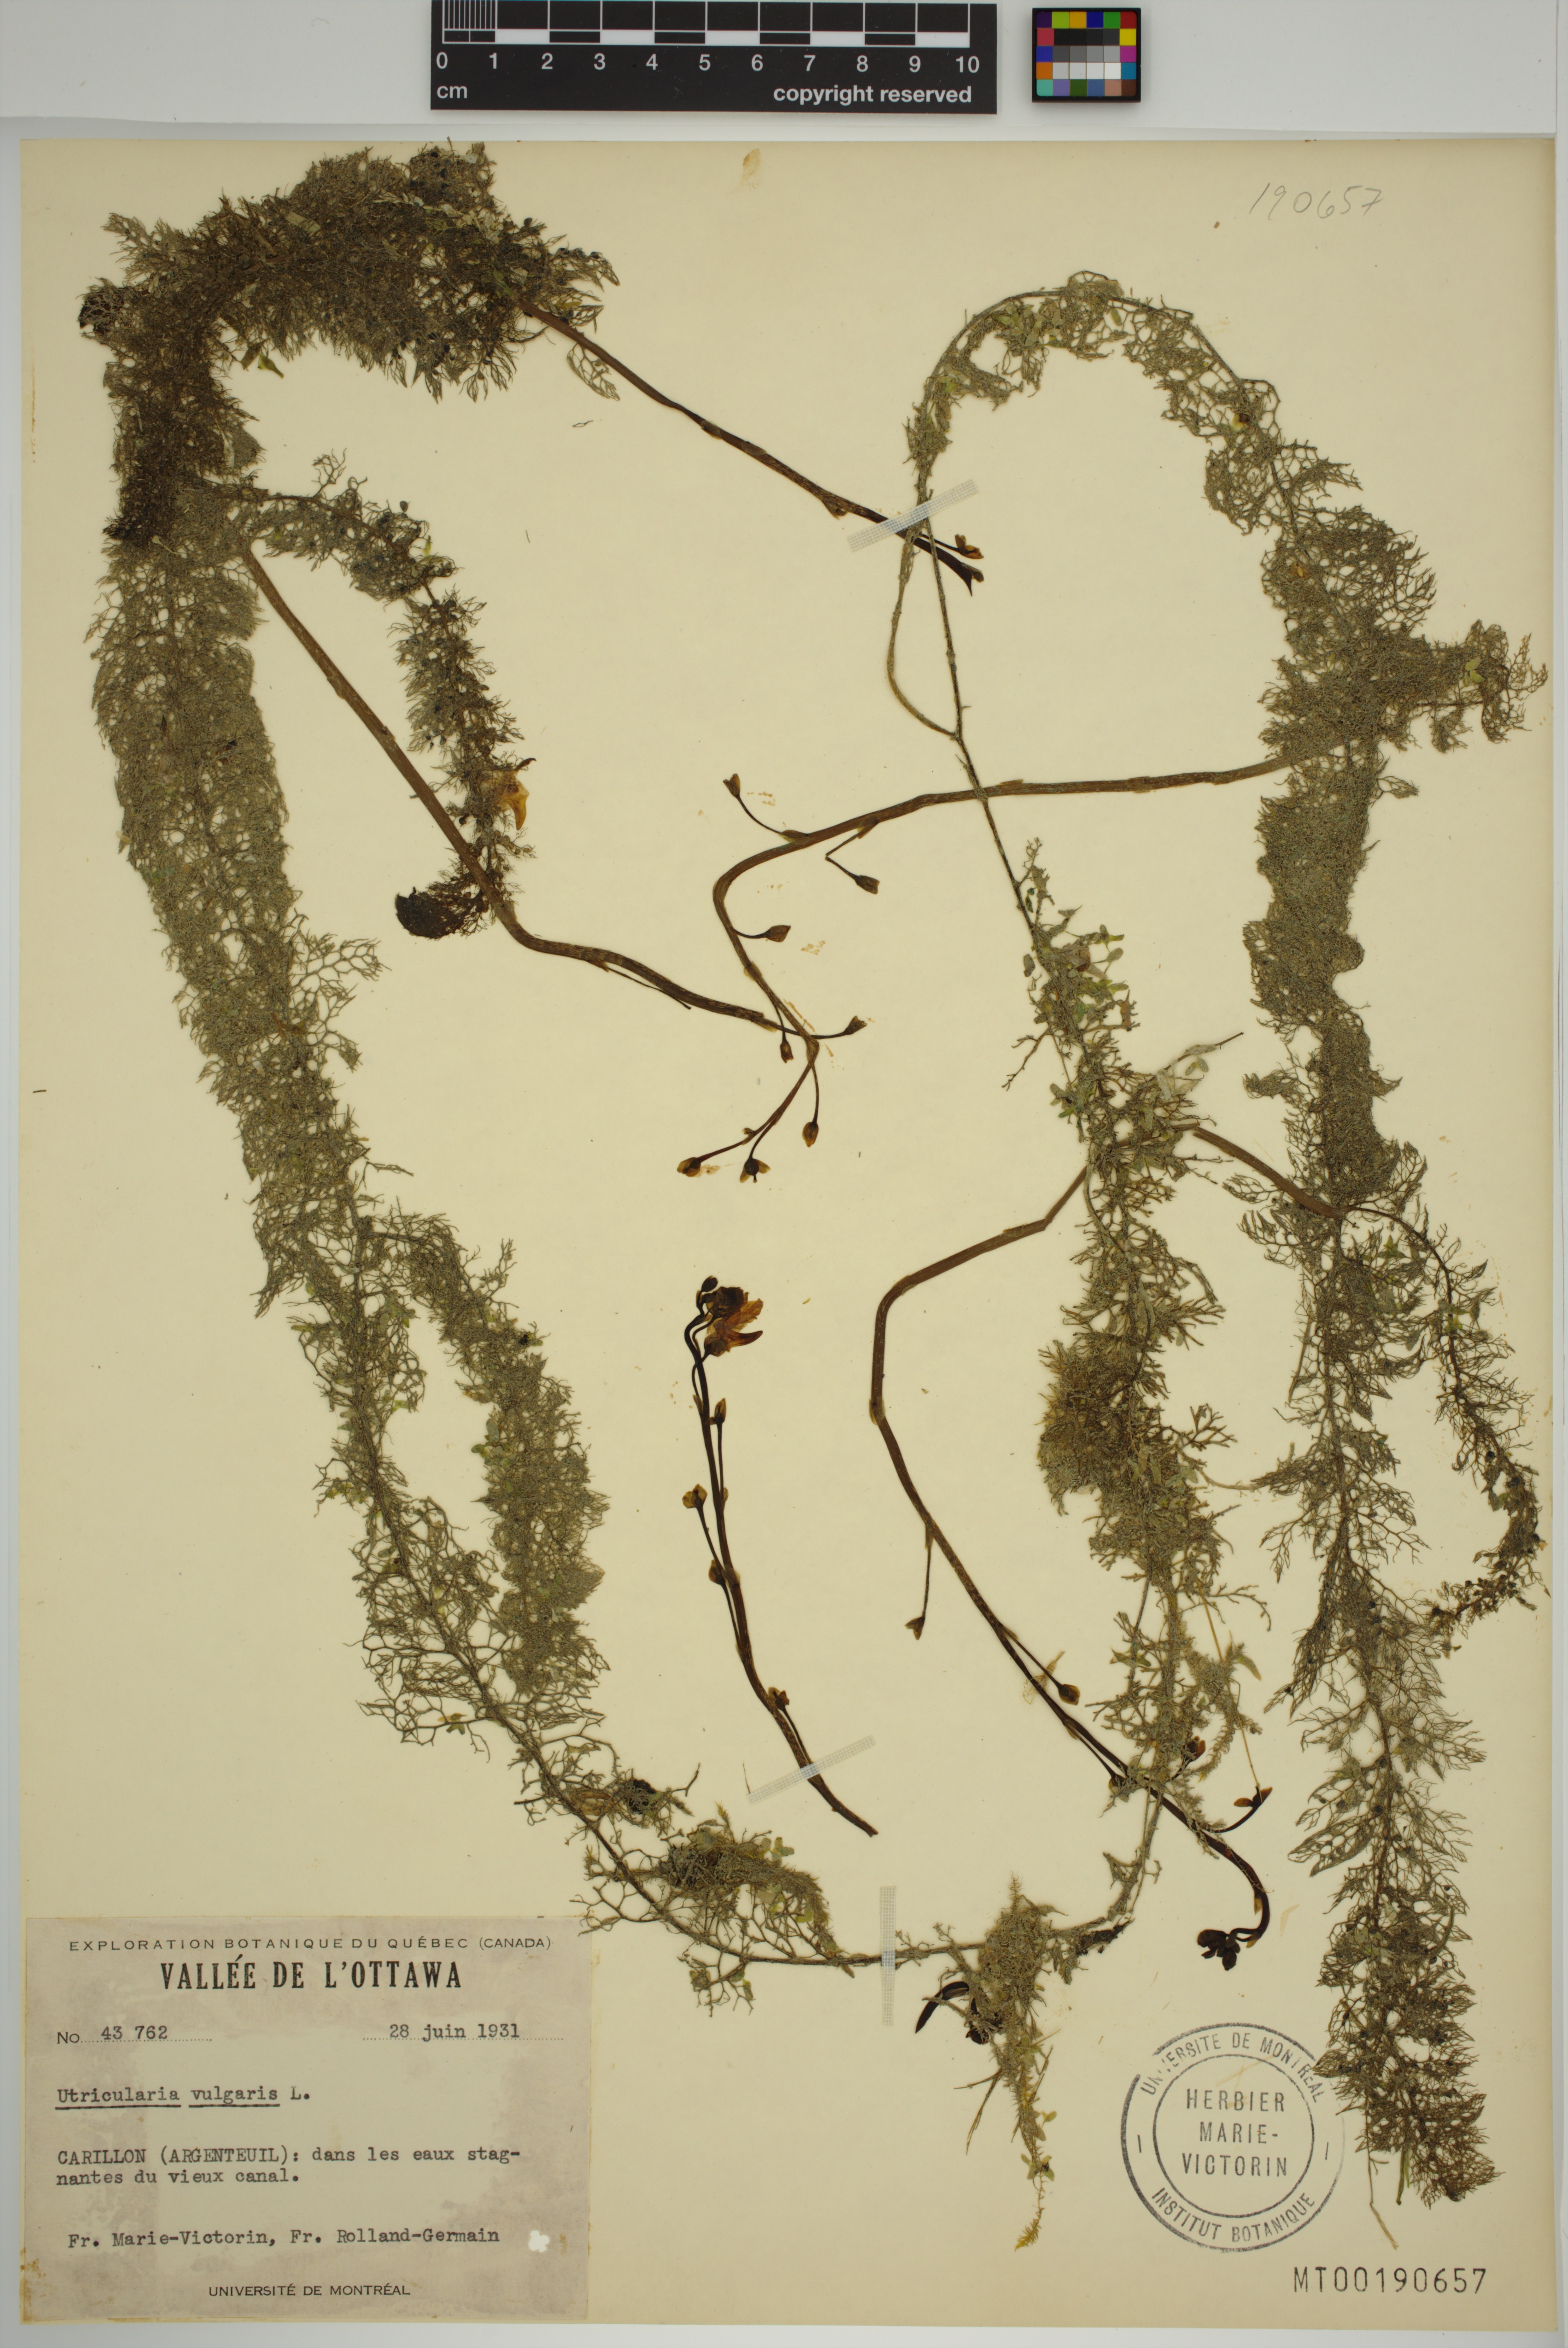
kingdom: Plantae
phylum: Tracheophyta
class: Magnoliopsida
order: Lamiales
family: Lentibulariaceae
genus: Utricularia
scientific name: Utricularia macrorhiza
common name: Common bladderwort
